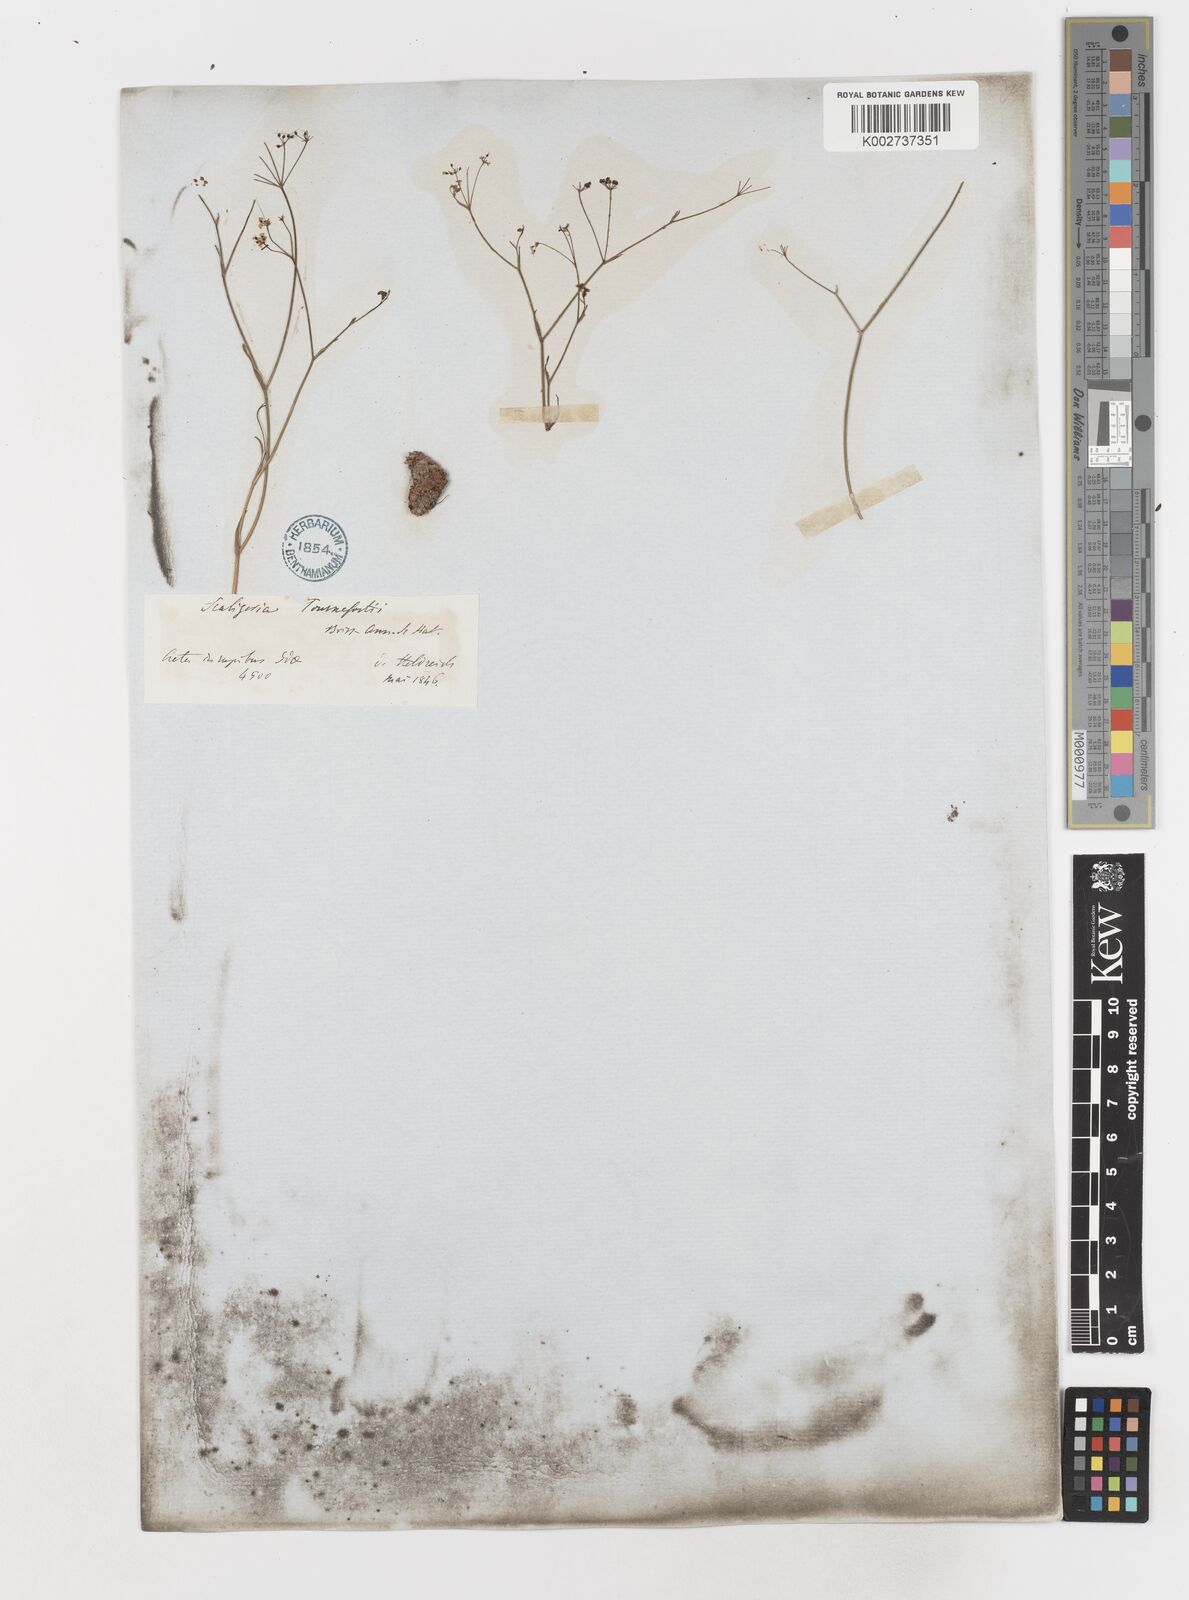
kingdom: Plantae
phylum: Tracheophyta
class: Magnoliopsida
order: Apiales
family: Apiaceae
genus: Scaligeria
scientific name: Scaligeria napiformis
